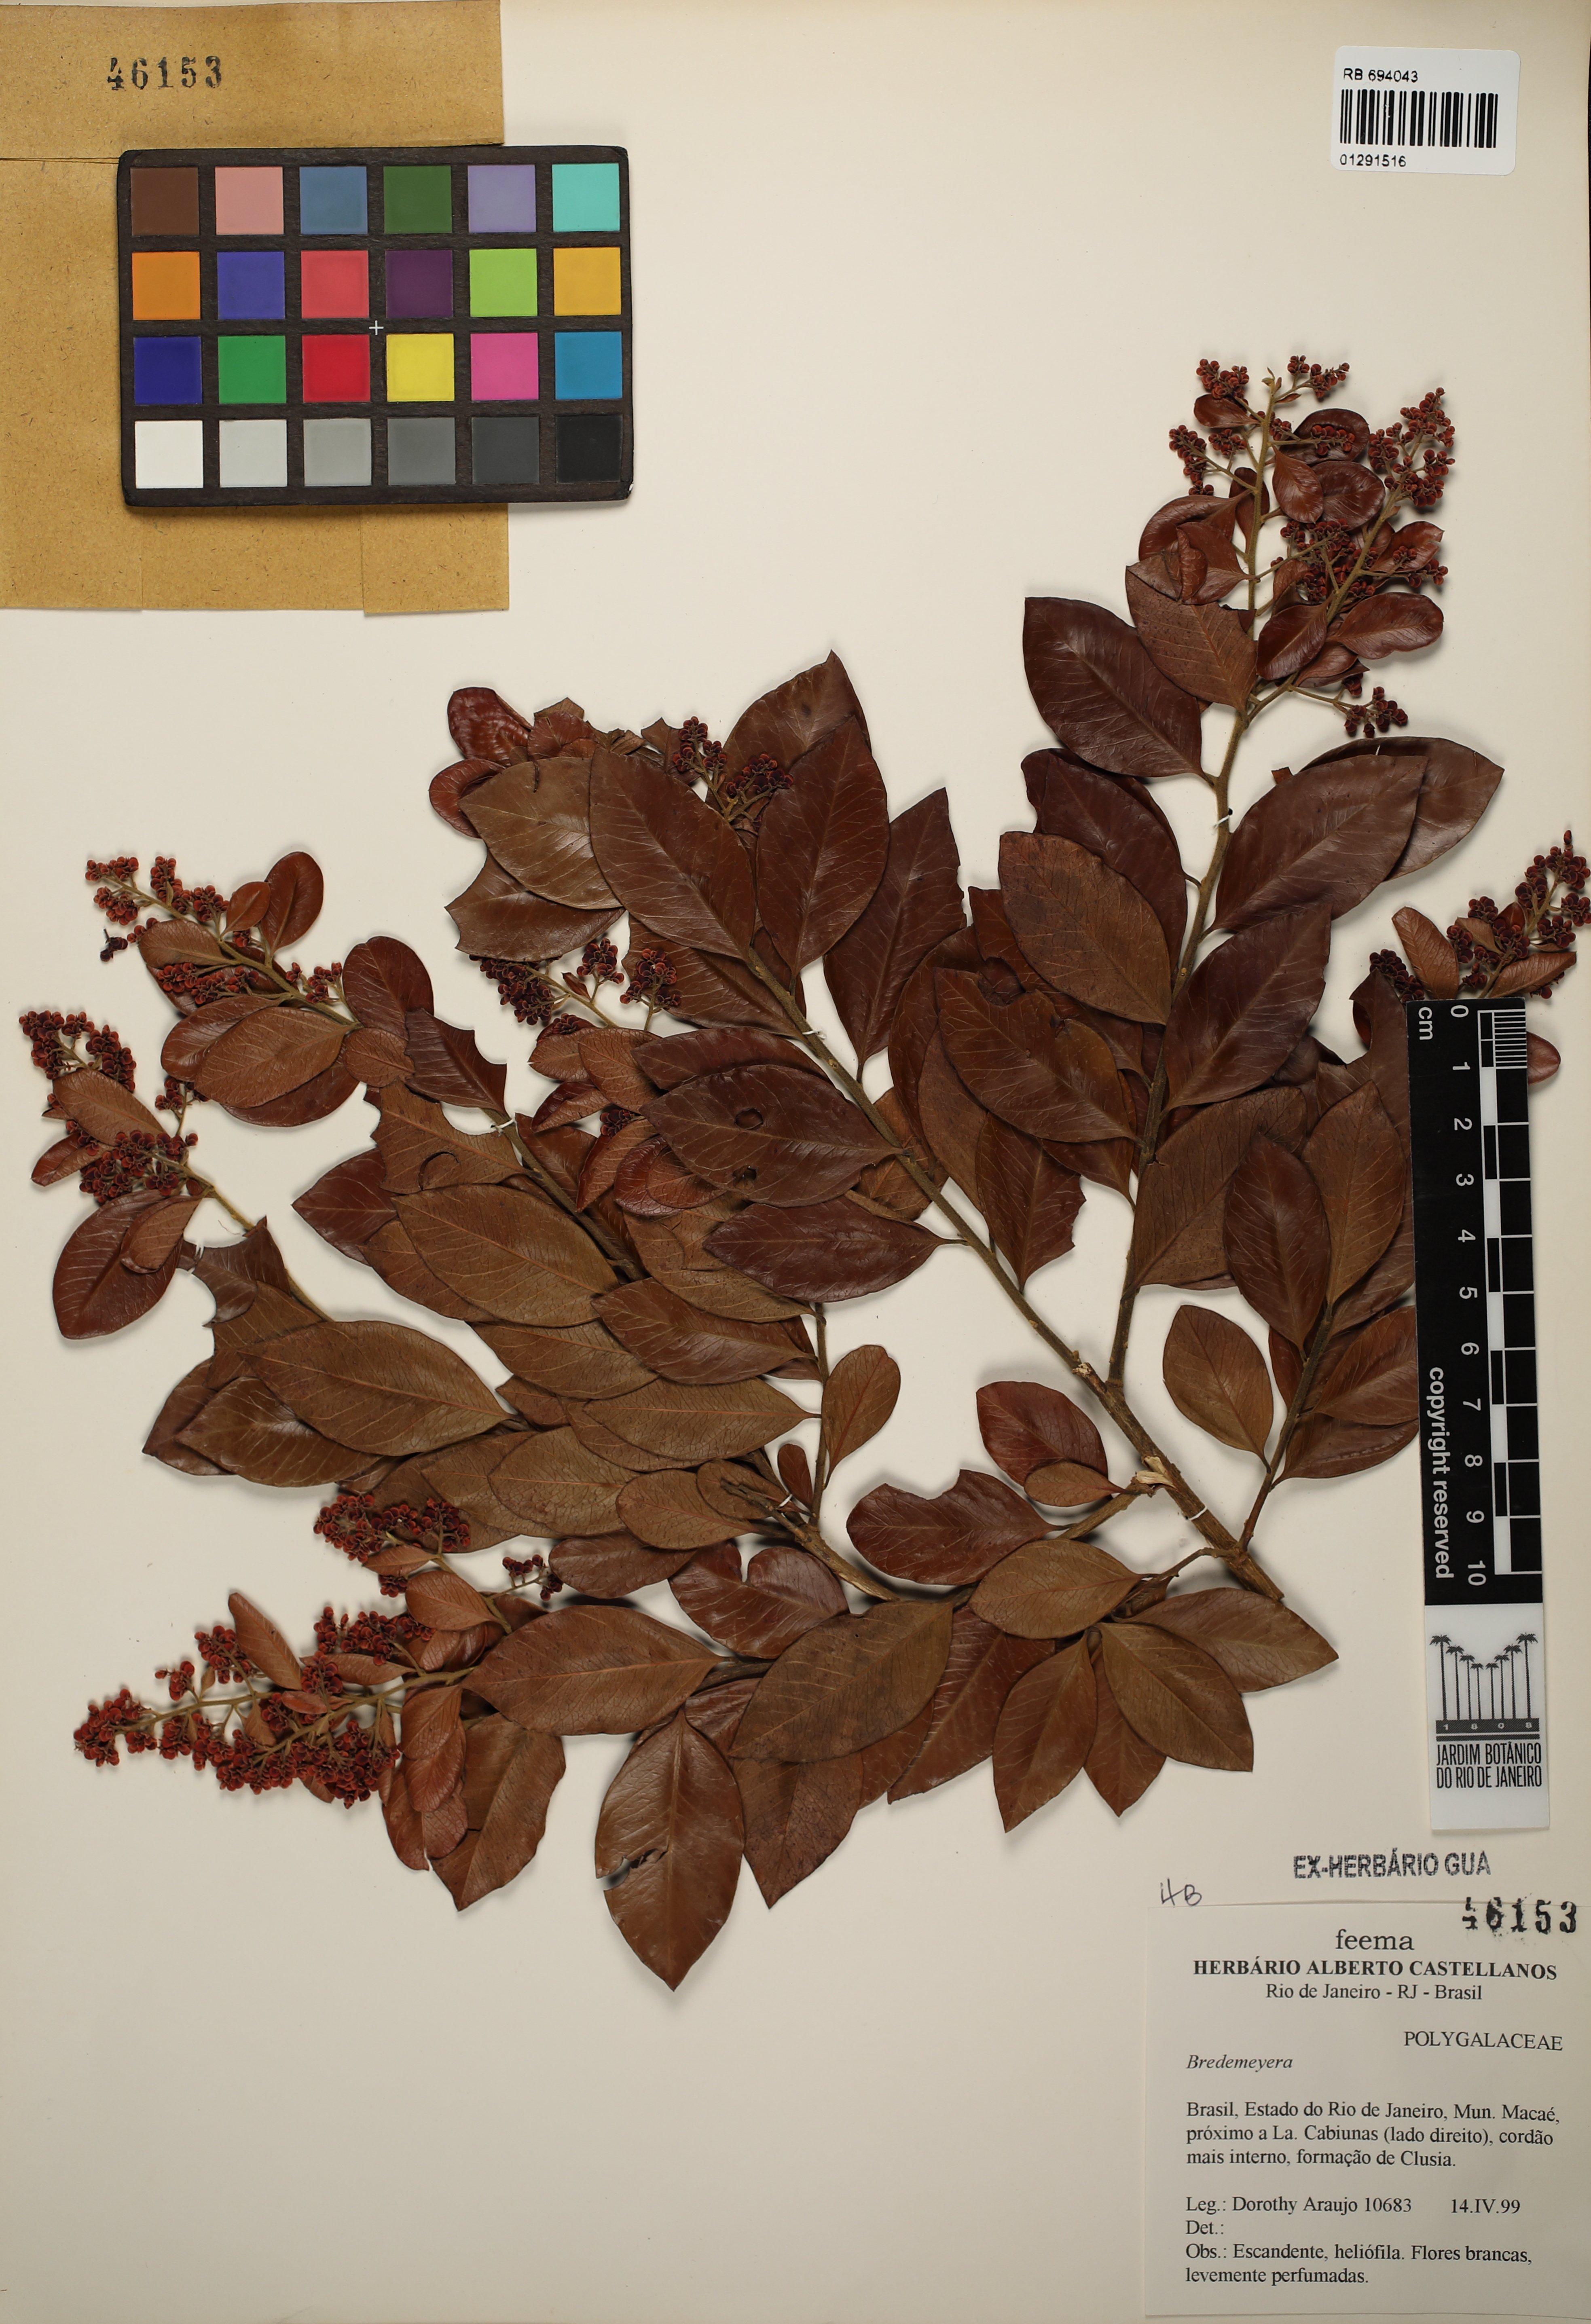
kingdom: Plantae
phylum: Tracheophyta
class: Magnoliopsida
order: Fabales
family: Polygalaceae
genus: Bredemeyera
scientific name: Bredemeyera
